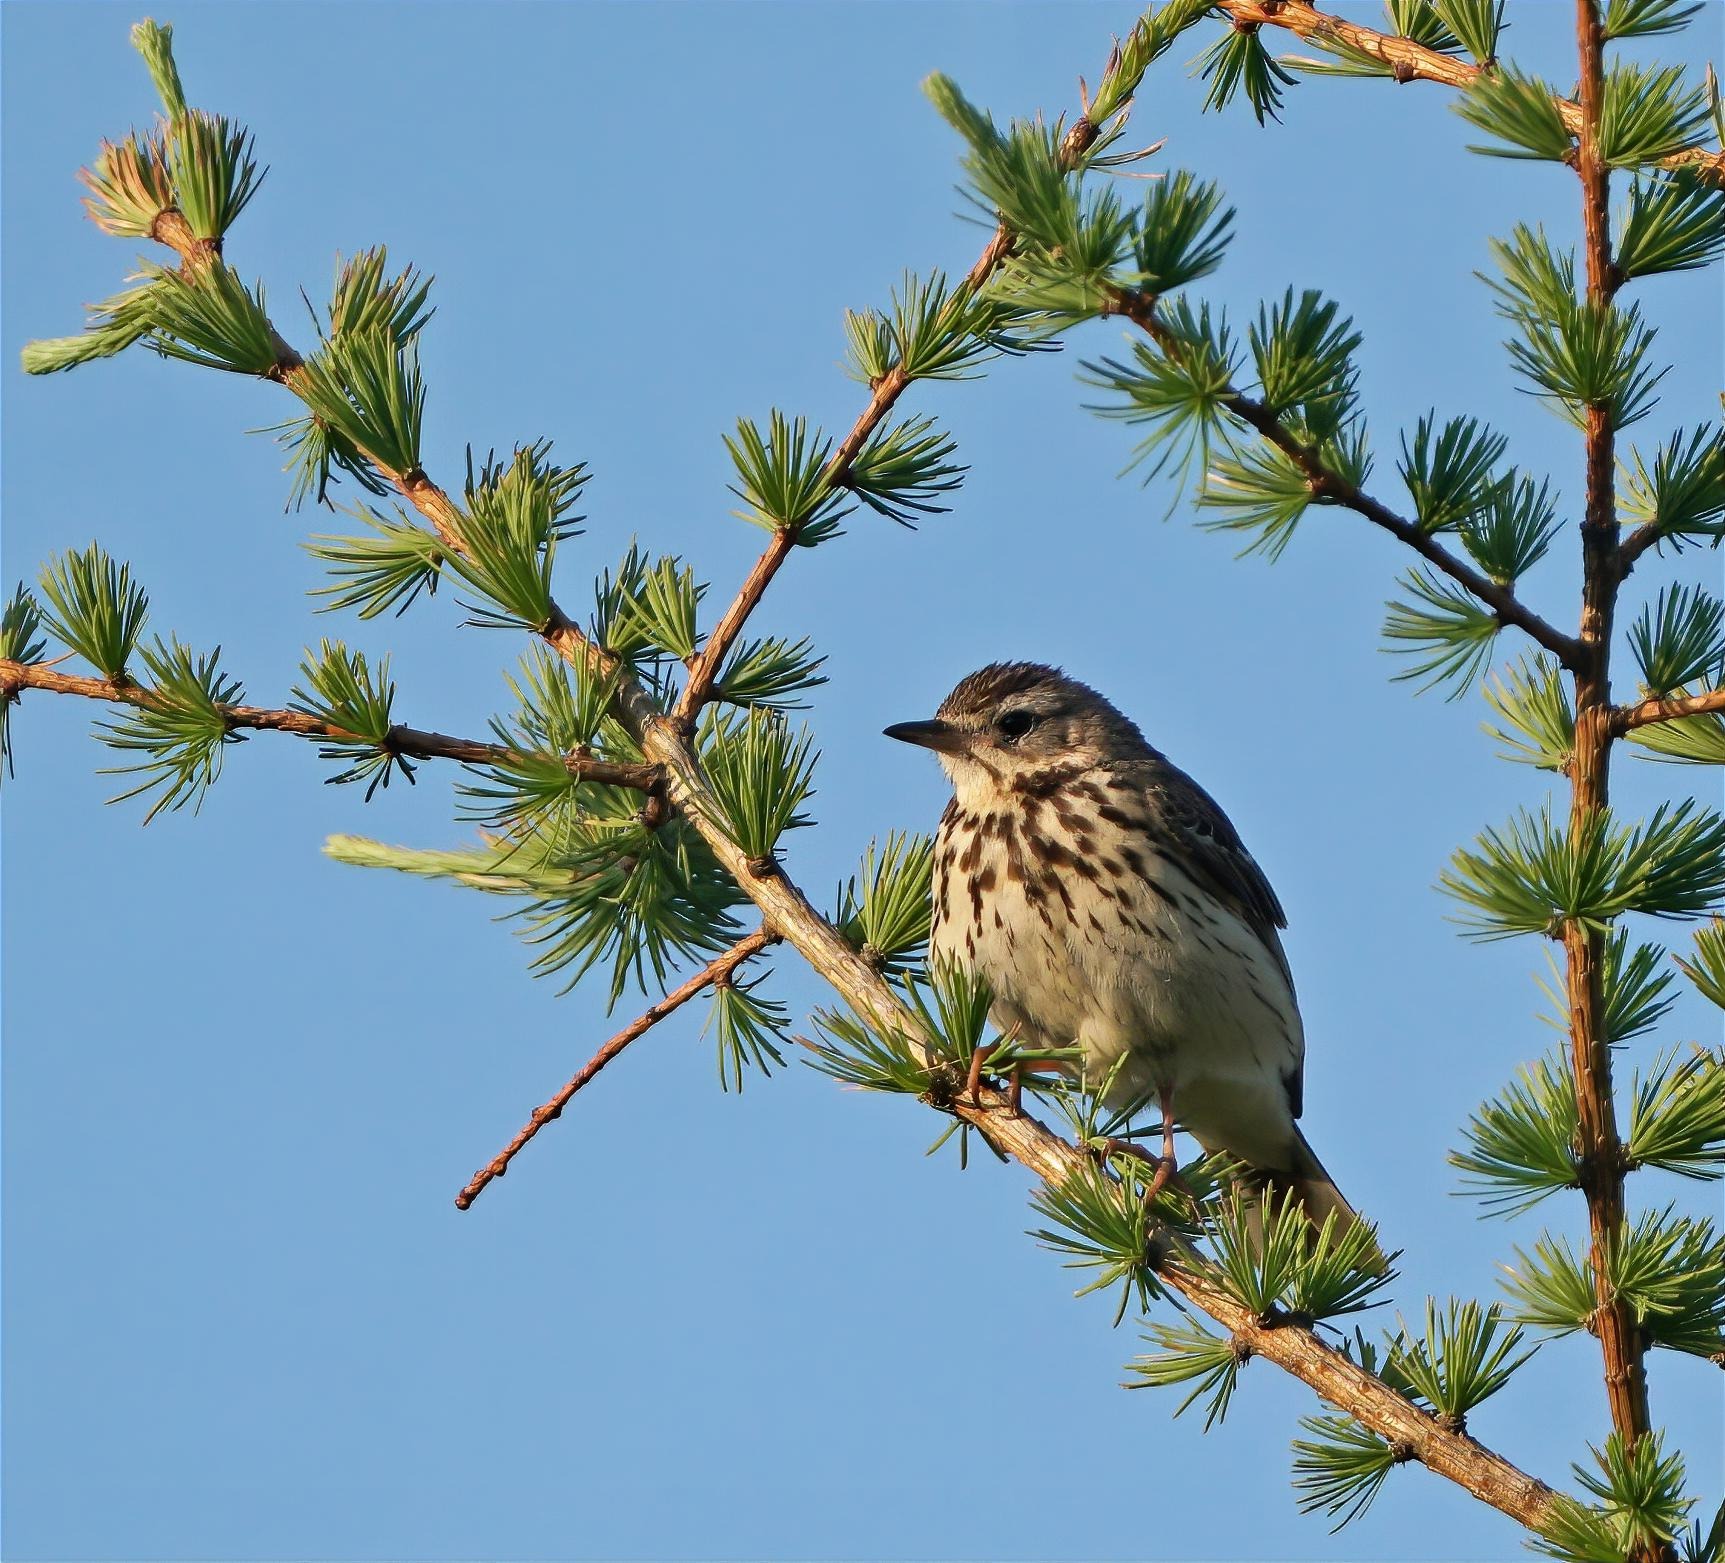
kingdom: Animalia
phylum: Chordata
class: Aves
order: Passeriformes
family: Motacillidae
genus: Anthus
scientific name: Anthus trivialis
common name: Skovpiber
